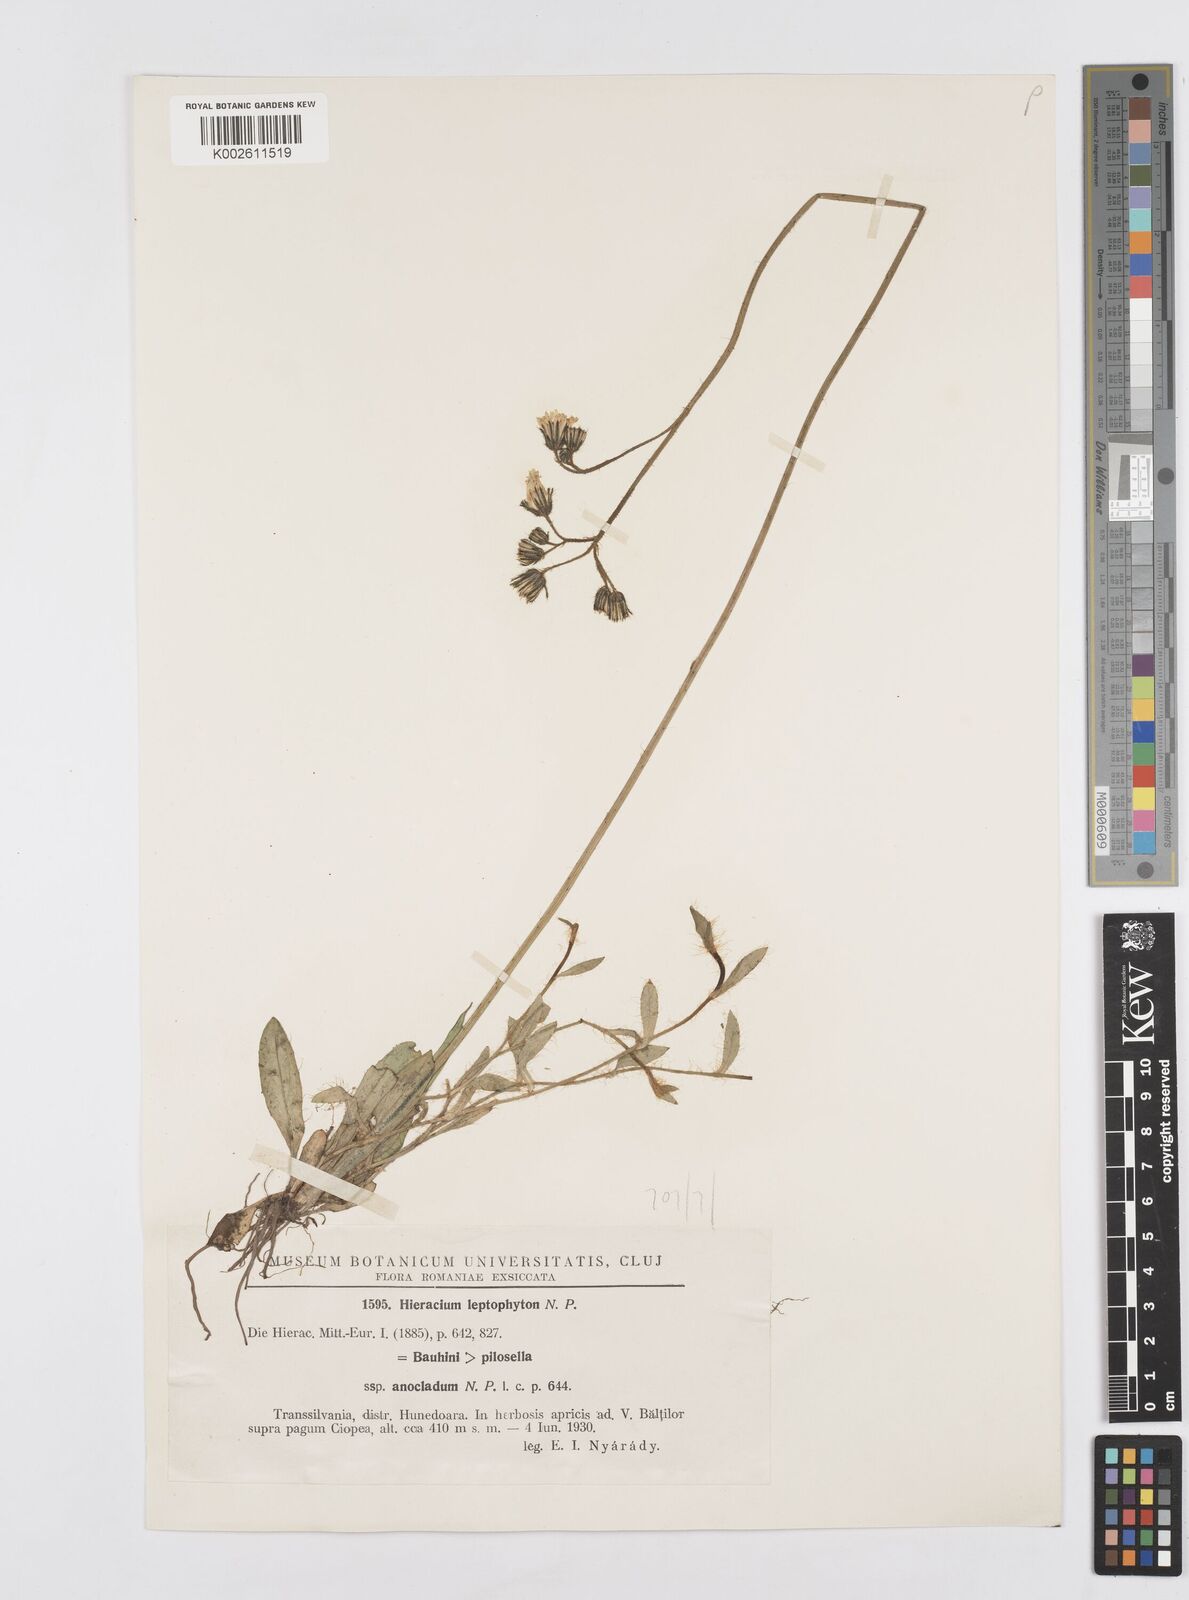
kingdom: Plantae
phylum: Tracheophyta
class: Magnoliopsida
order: Asterales
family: Asteraceae
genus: Pilosella
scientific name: Pilosella leptophyton
